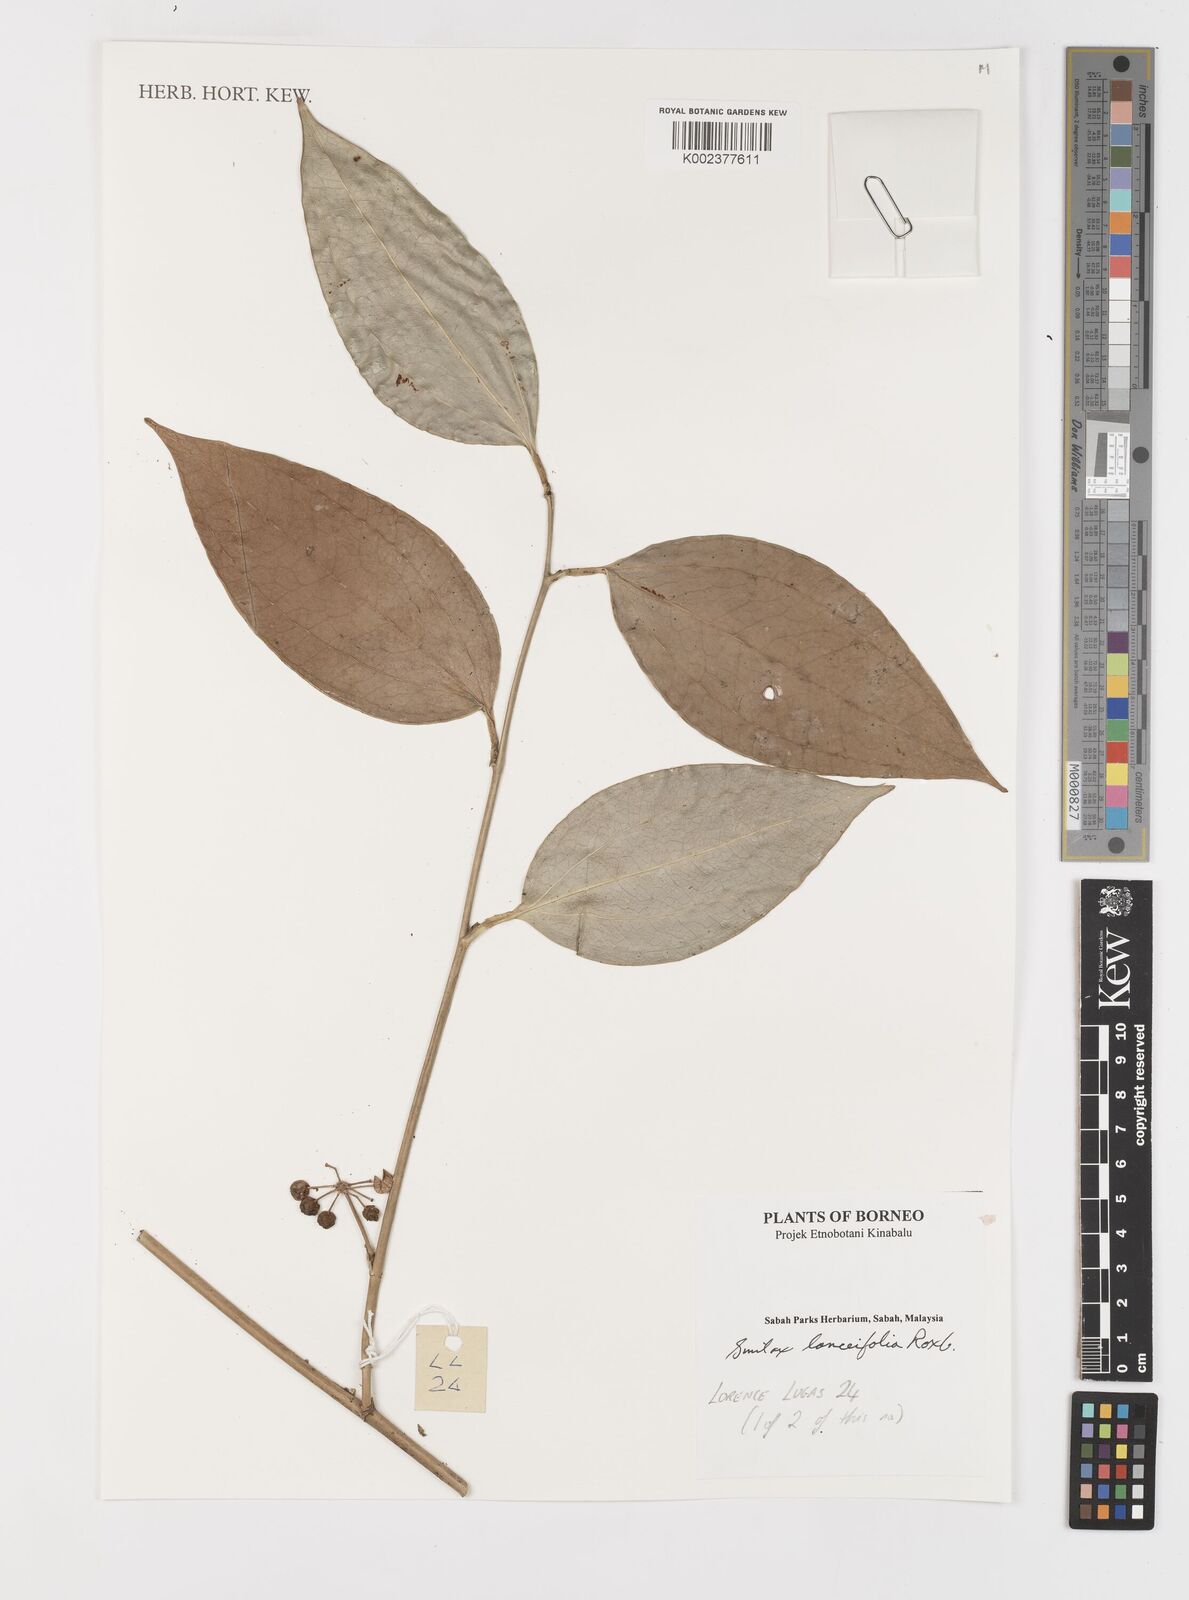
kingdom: Plantae
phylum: Tracheophyta
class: Liliopsida
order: Liliales
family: Smilacaceae
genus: Smilax
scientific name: Smilax lanceifolia
